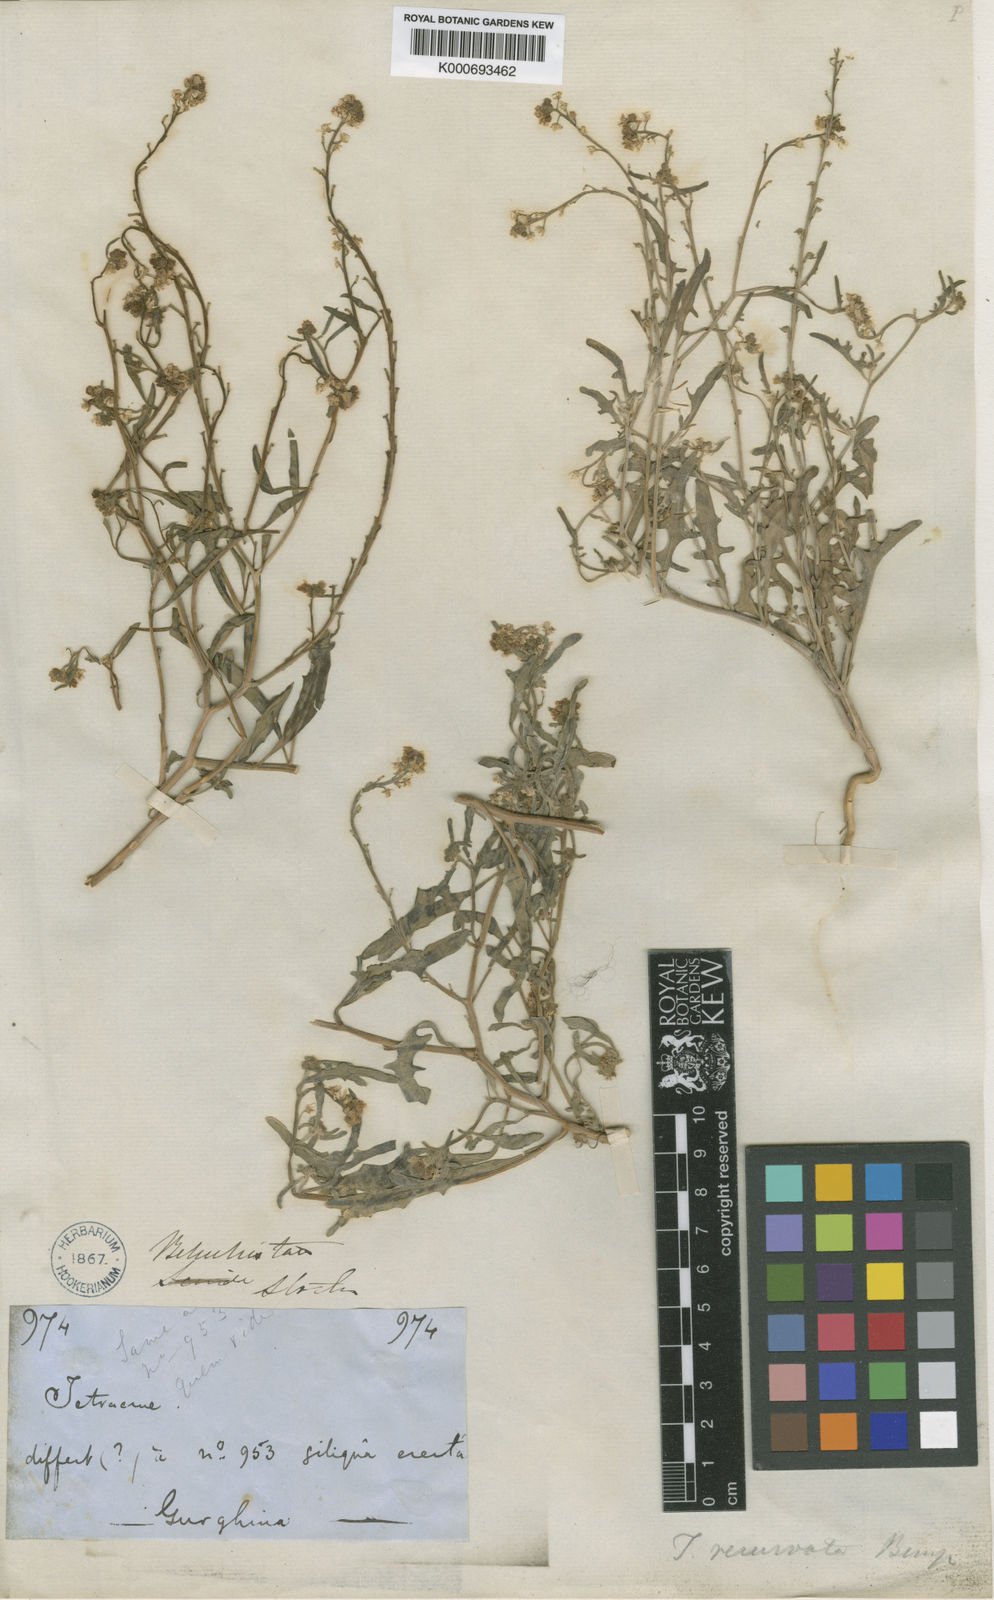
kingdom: Plantae
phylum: Tracheophyta
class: Magnoliopsida
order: Brassicales
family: Brassicaceae
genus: Tetracme
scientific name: Tetracme stocksii
